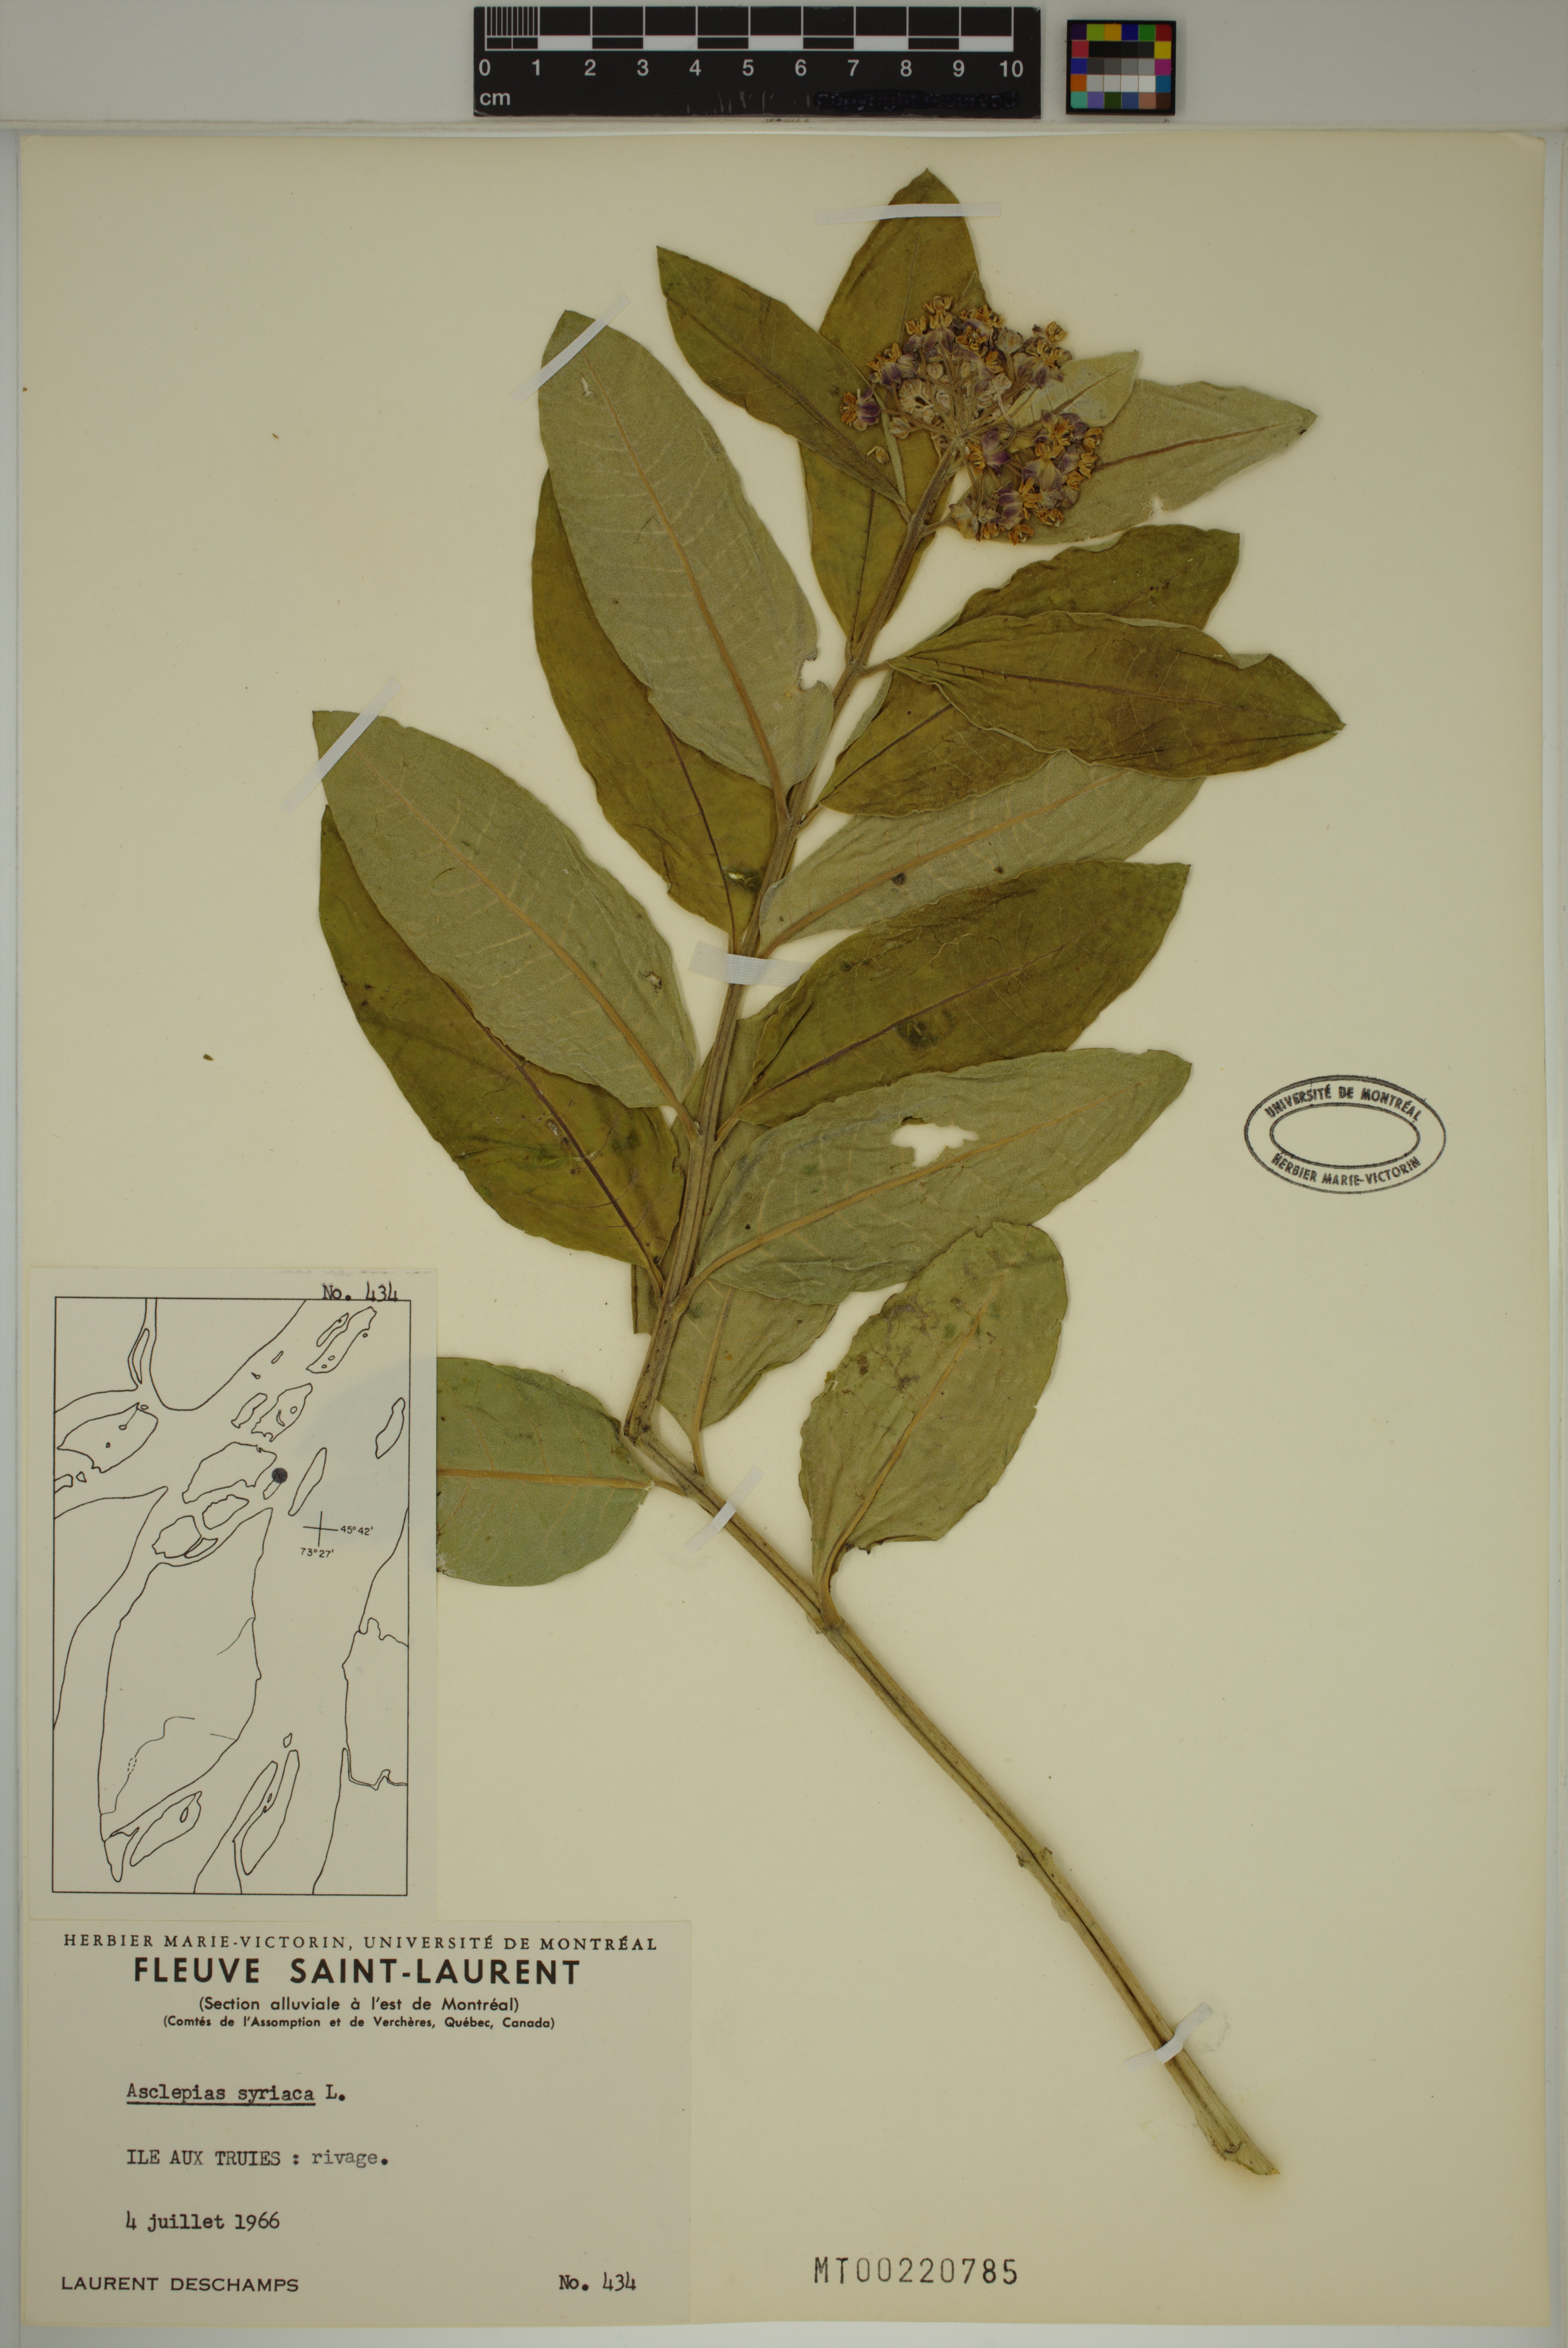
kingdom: Plantae
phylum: Tracheophyta
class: Magnoliopsida
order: Gentianales
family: Apocynaceae
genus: Asclepias
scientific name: Asclepias syriaca
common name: Common milkweed
